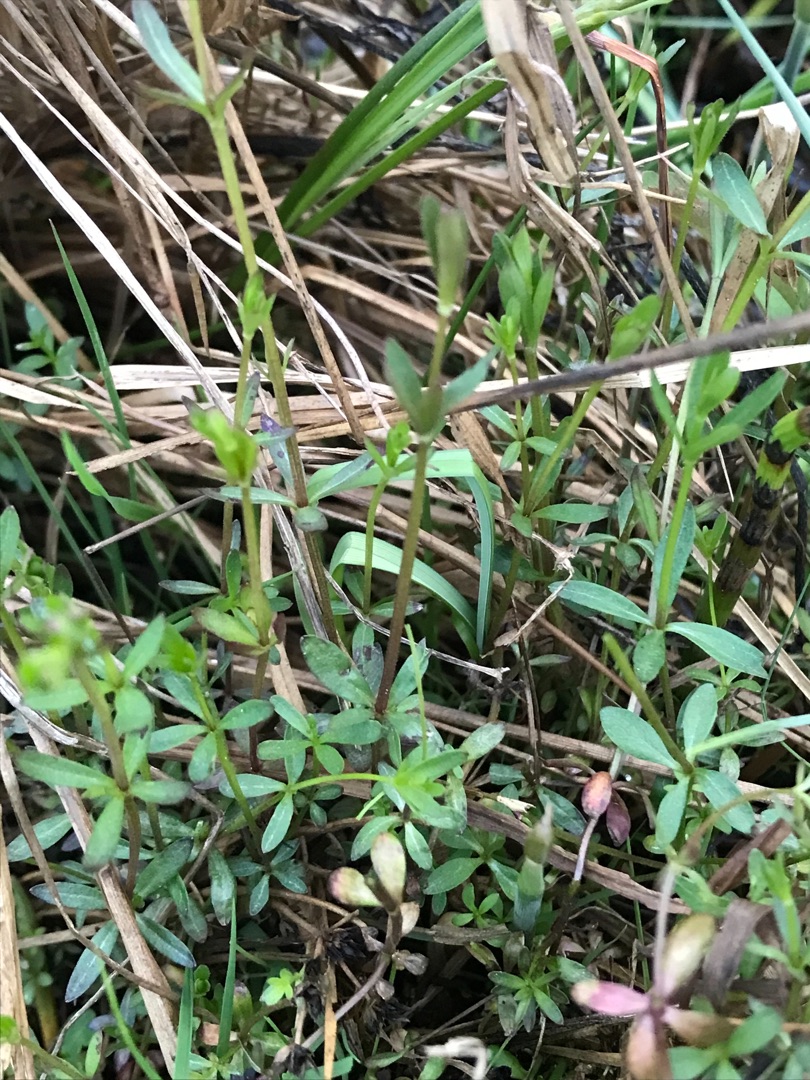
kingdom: Plantae
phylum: Tracheophyta
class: Magnoliopsida
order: Gentianales
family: Rubiaceae
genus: Galium
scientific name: Galium palustre
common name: Kær-snerre
